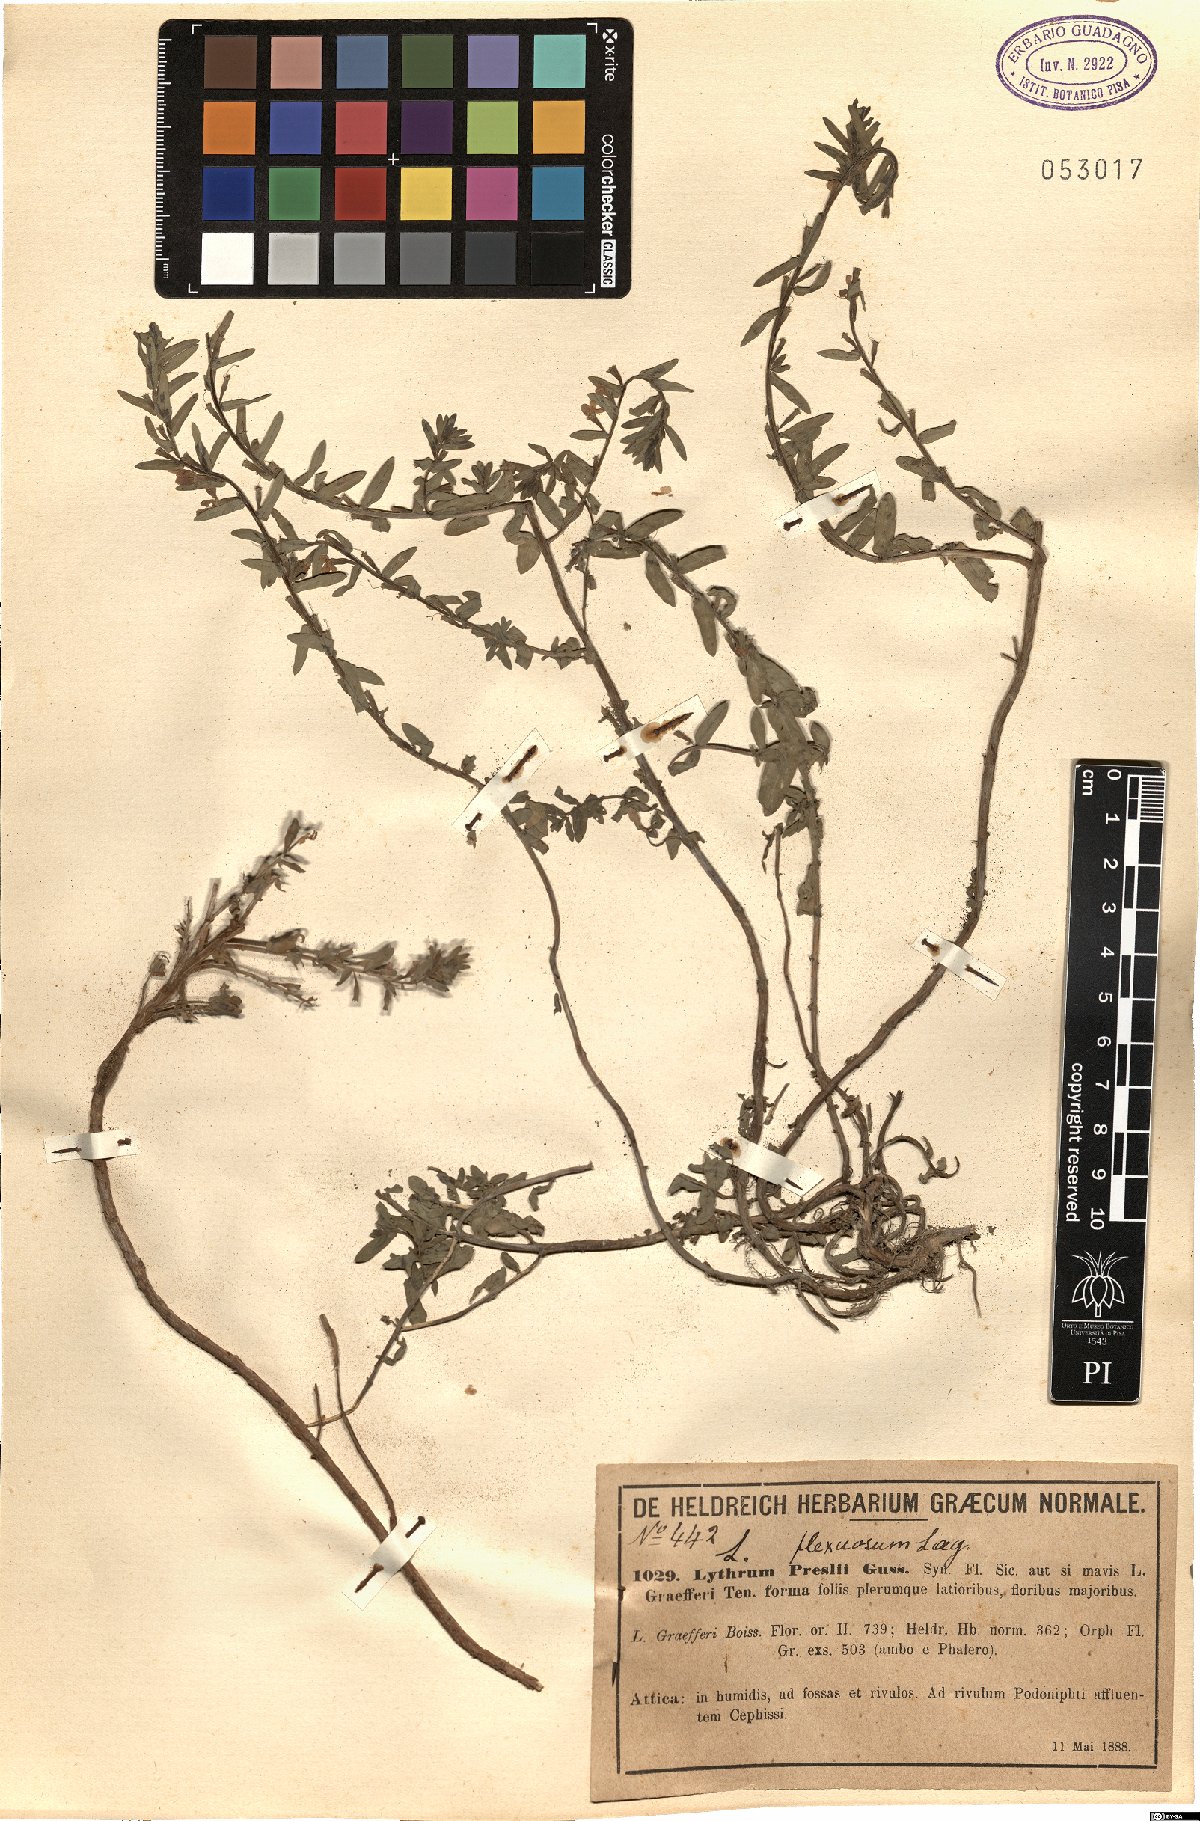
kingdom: Plantae
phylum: Tracheophyta
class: Magnoliopsida
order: Myrtales
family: Lythraceae
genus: Lythrum
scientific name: Lythrum flexuosum
